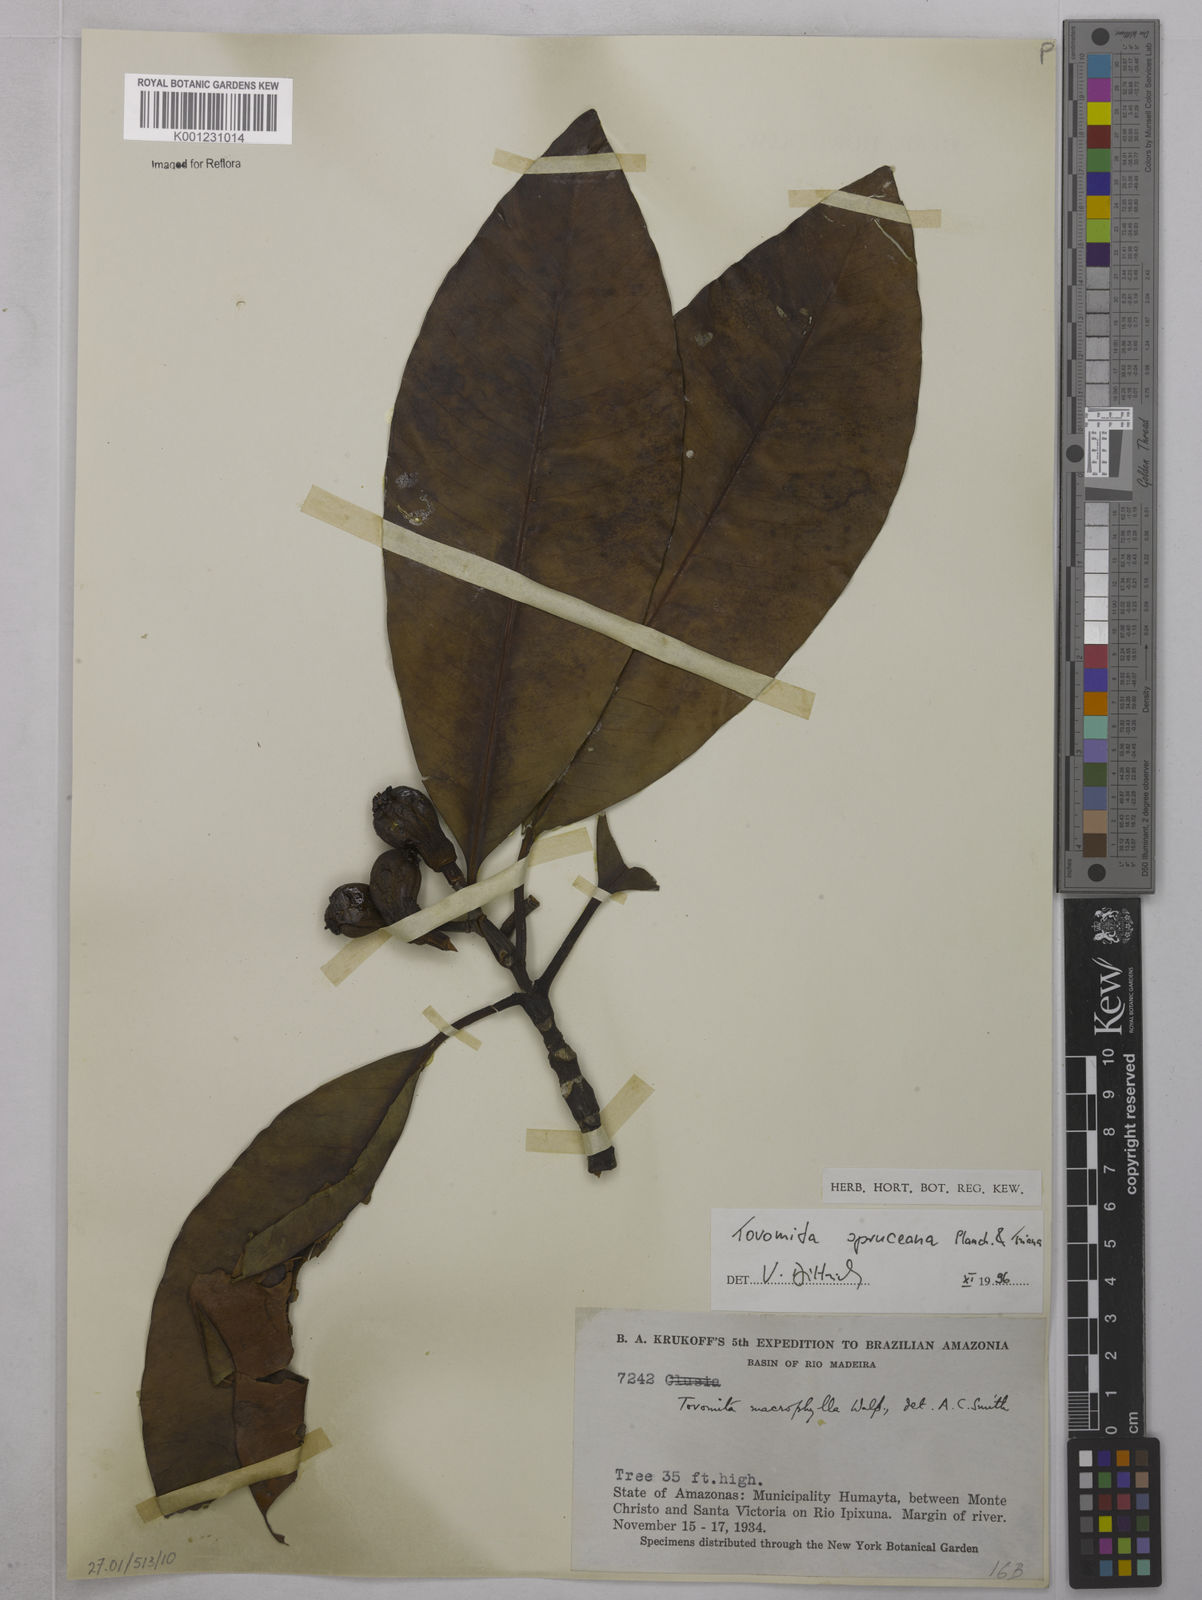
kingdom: Plantae
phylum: Tracheophyta
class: Magnoliopsida
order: Malpighiales
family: Clusiaceae
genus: Tovomita
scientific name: Tovomita spruceana
